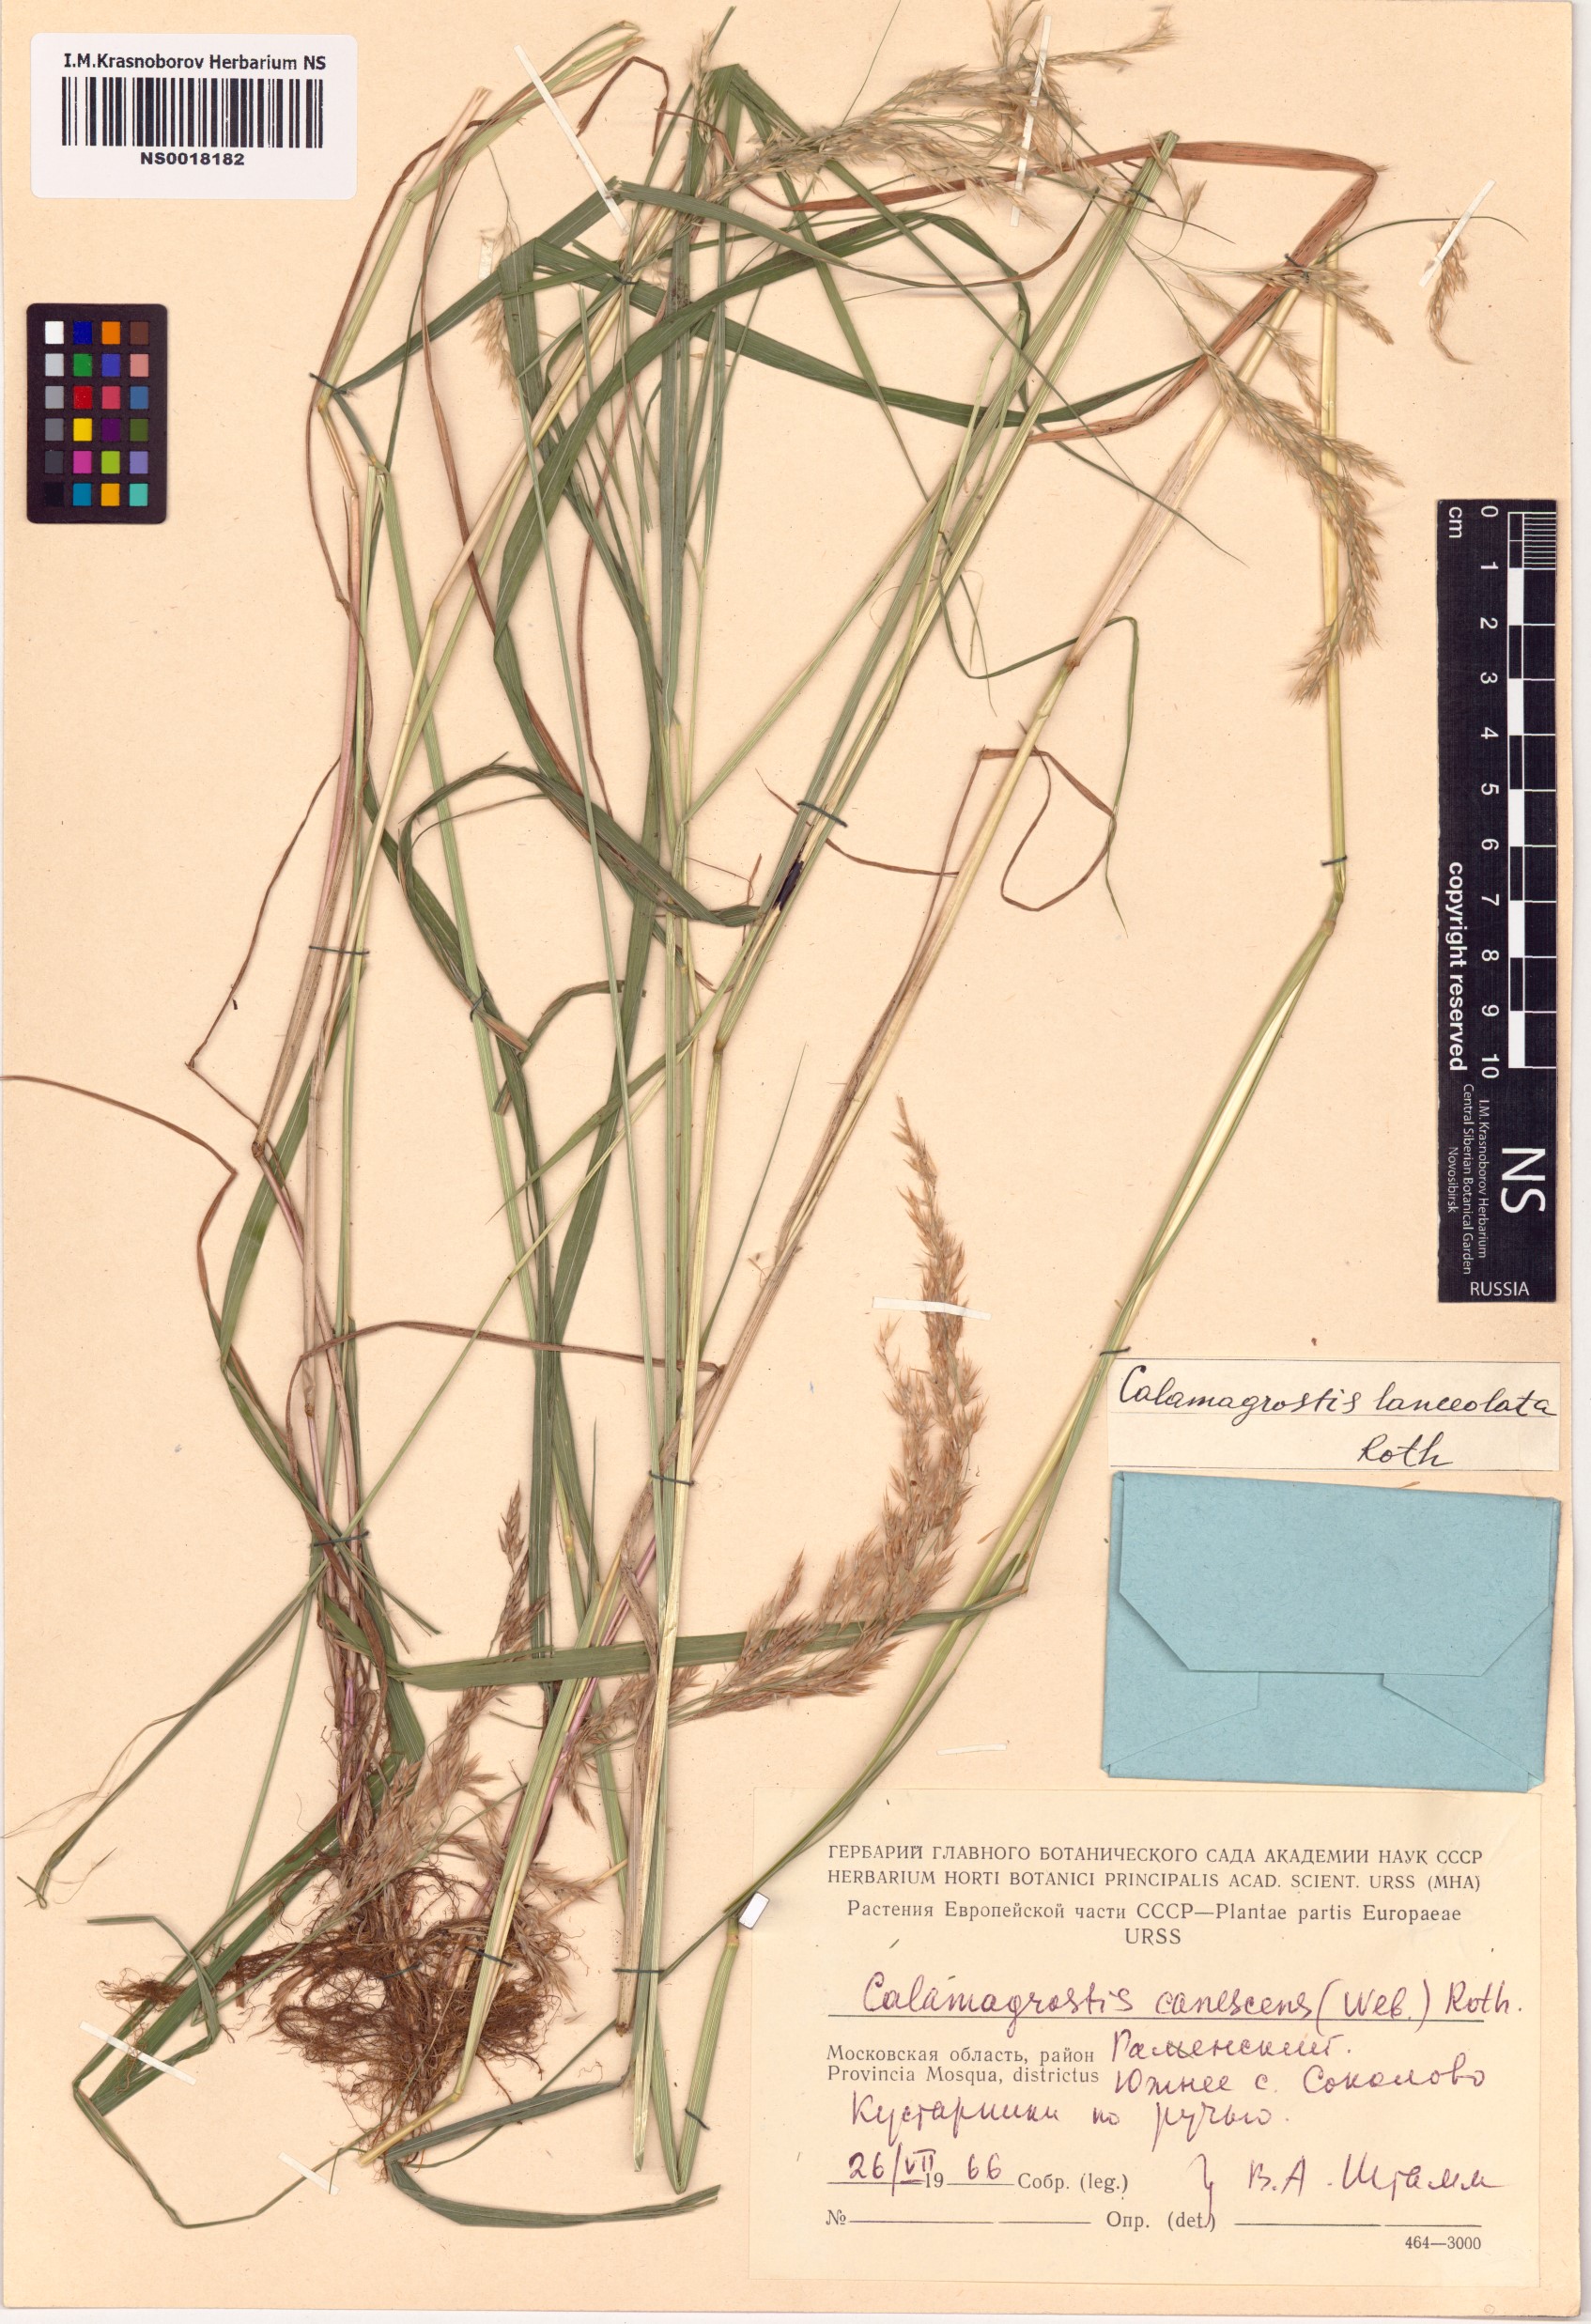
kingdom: Plantae
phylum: Tracheophyta
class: Liliopsida
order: Poales
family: Poaceae
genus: Calamagrostis
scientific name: Calamagrostis canescens
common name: Purple small-reed
